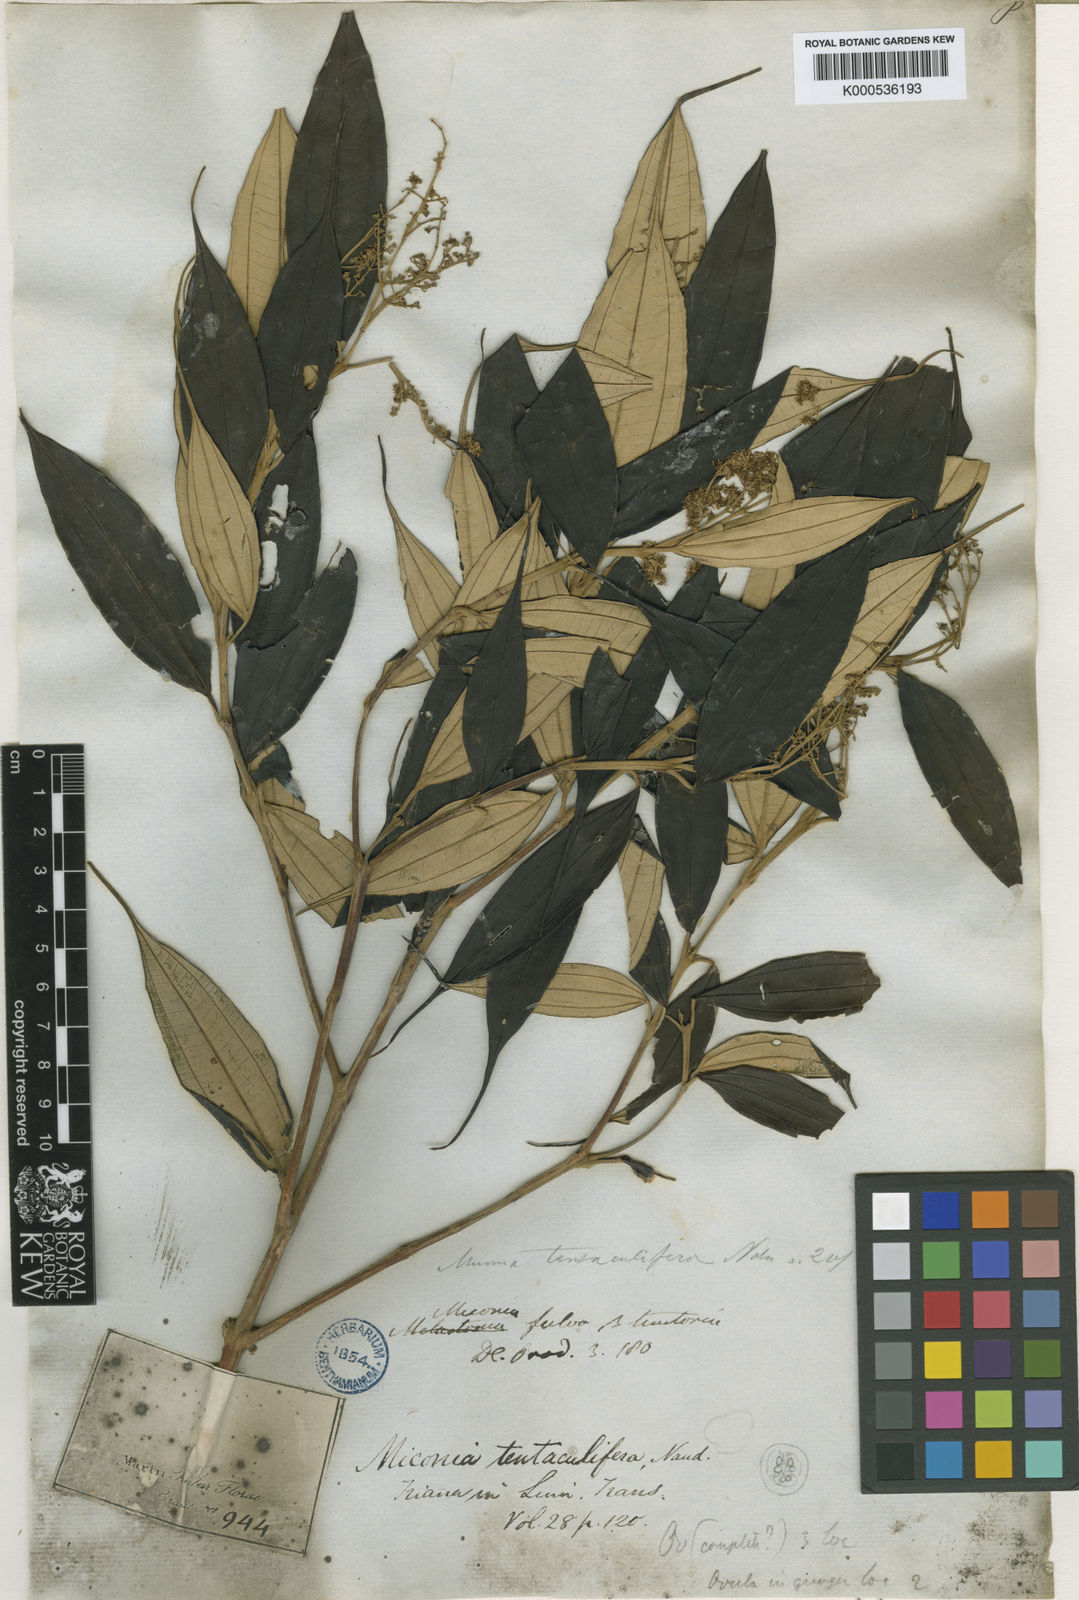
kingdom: Plantae
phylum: Tracheophyta
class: Magnoliopsida
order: Myrtales
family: Melastomataceae
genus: Miconia
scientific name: Miconia tentaculifera
